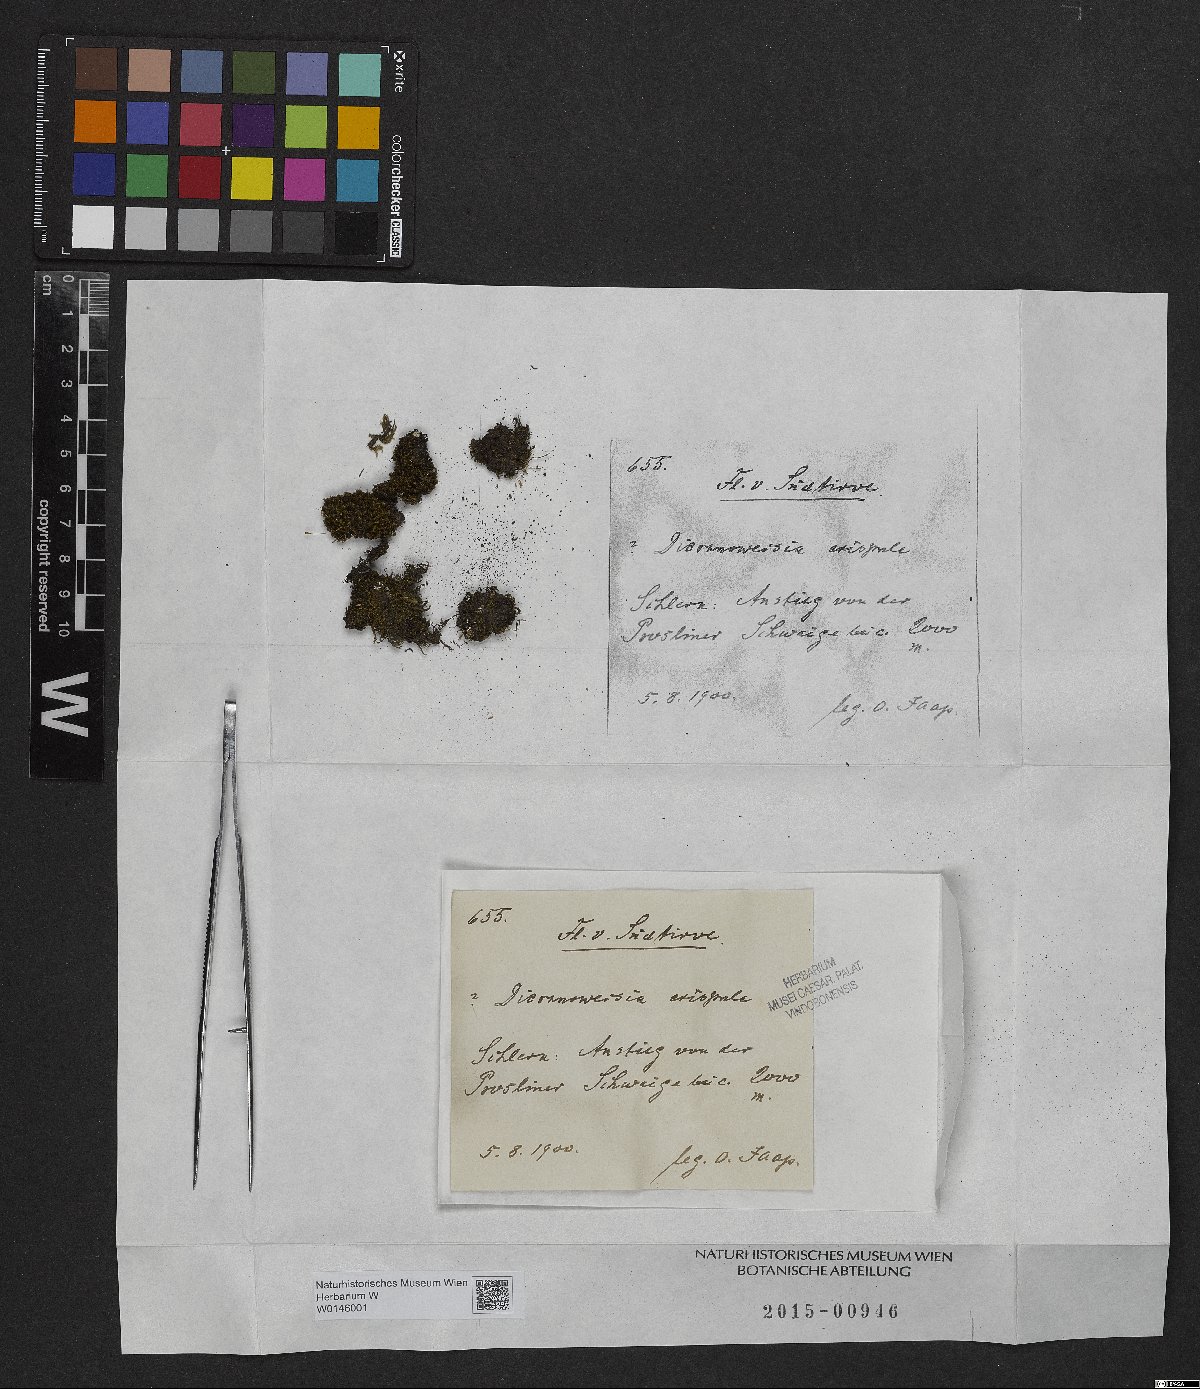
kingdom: Plantae
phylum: Bryophyta
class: Bryopsida
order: Scouleriales
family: Hymenolomataceae
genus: Hymenoloma
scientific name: Hymenoloma crispulum
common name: Mountain pincushion
